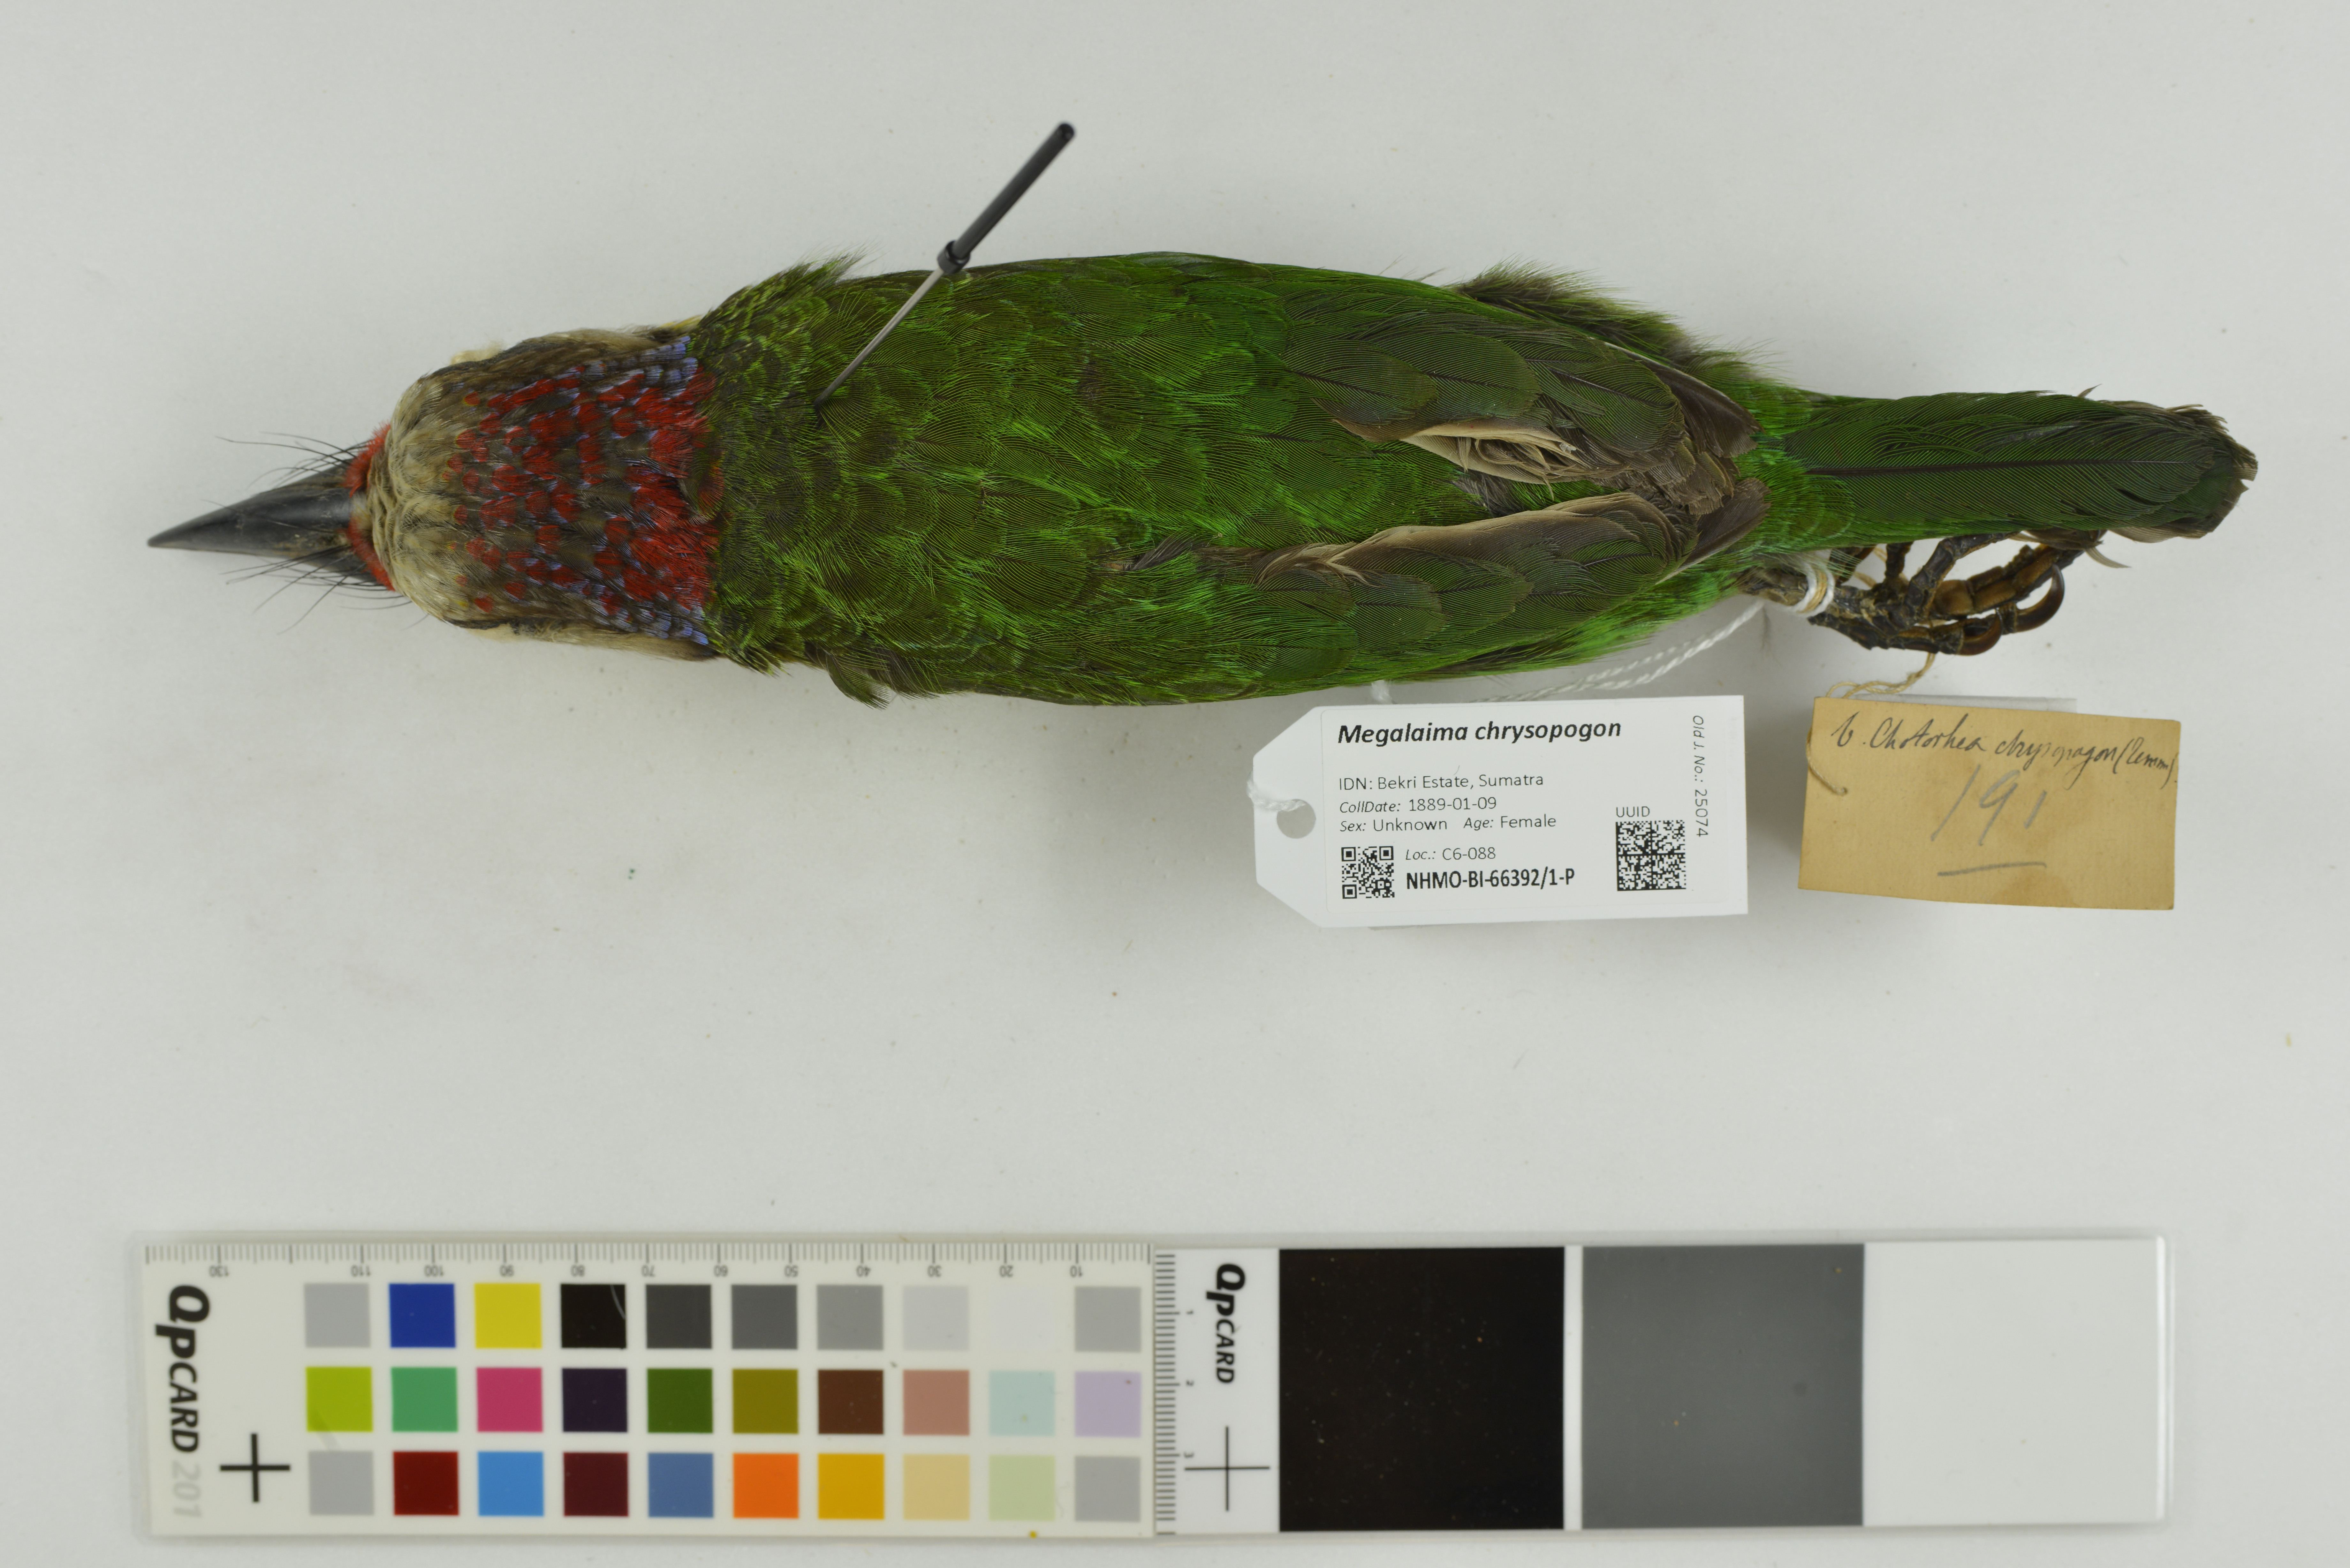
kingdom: Animalia
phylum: Chordata
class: Aves
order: Piciformes
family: Megalaimidae
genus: Psilopogon
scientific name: Psilopogon chrysopogon
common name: Golden-whiskered barbet
